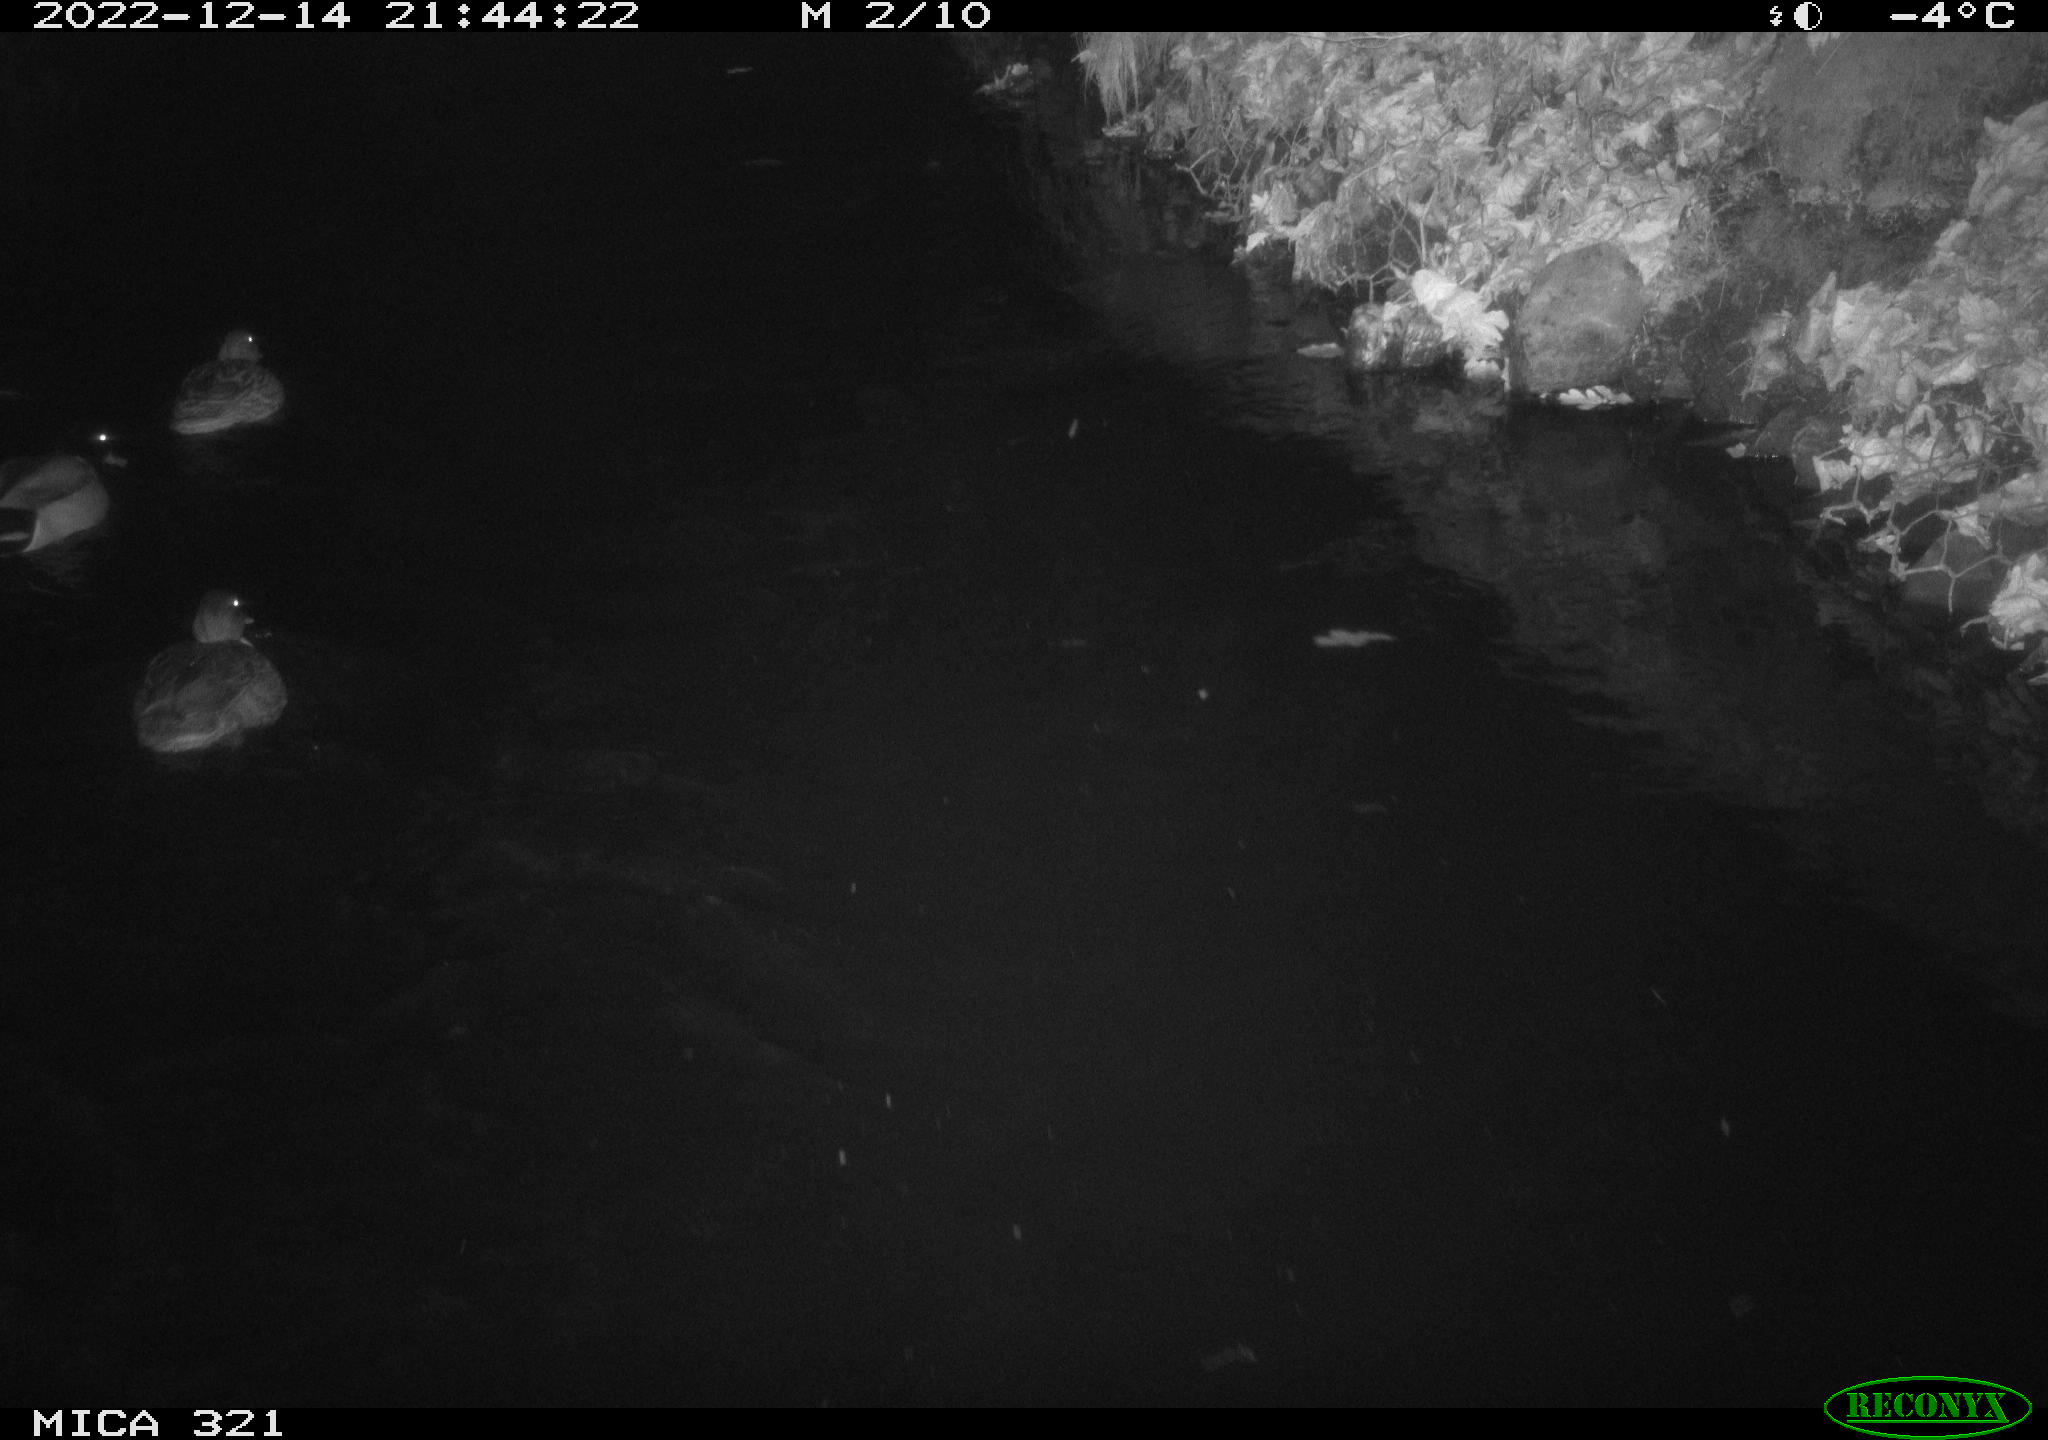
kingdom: Animalia
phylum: Chordata
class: Aves
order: Anseriformes
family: Anatidae
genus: Anas
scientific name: Anas
